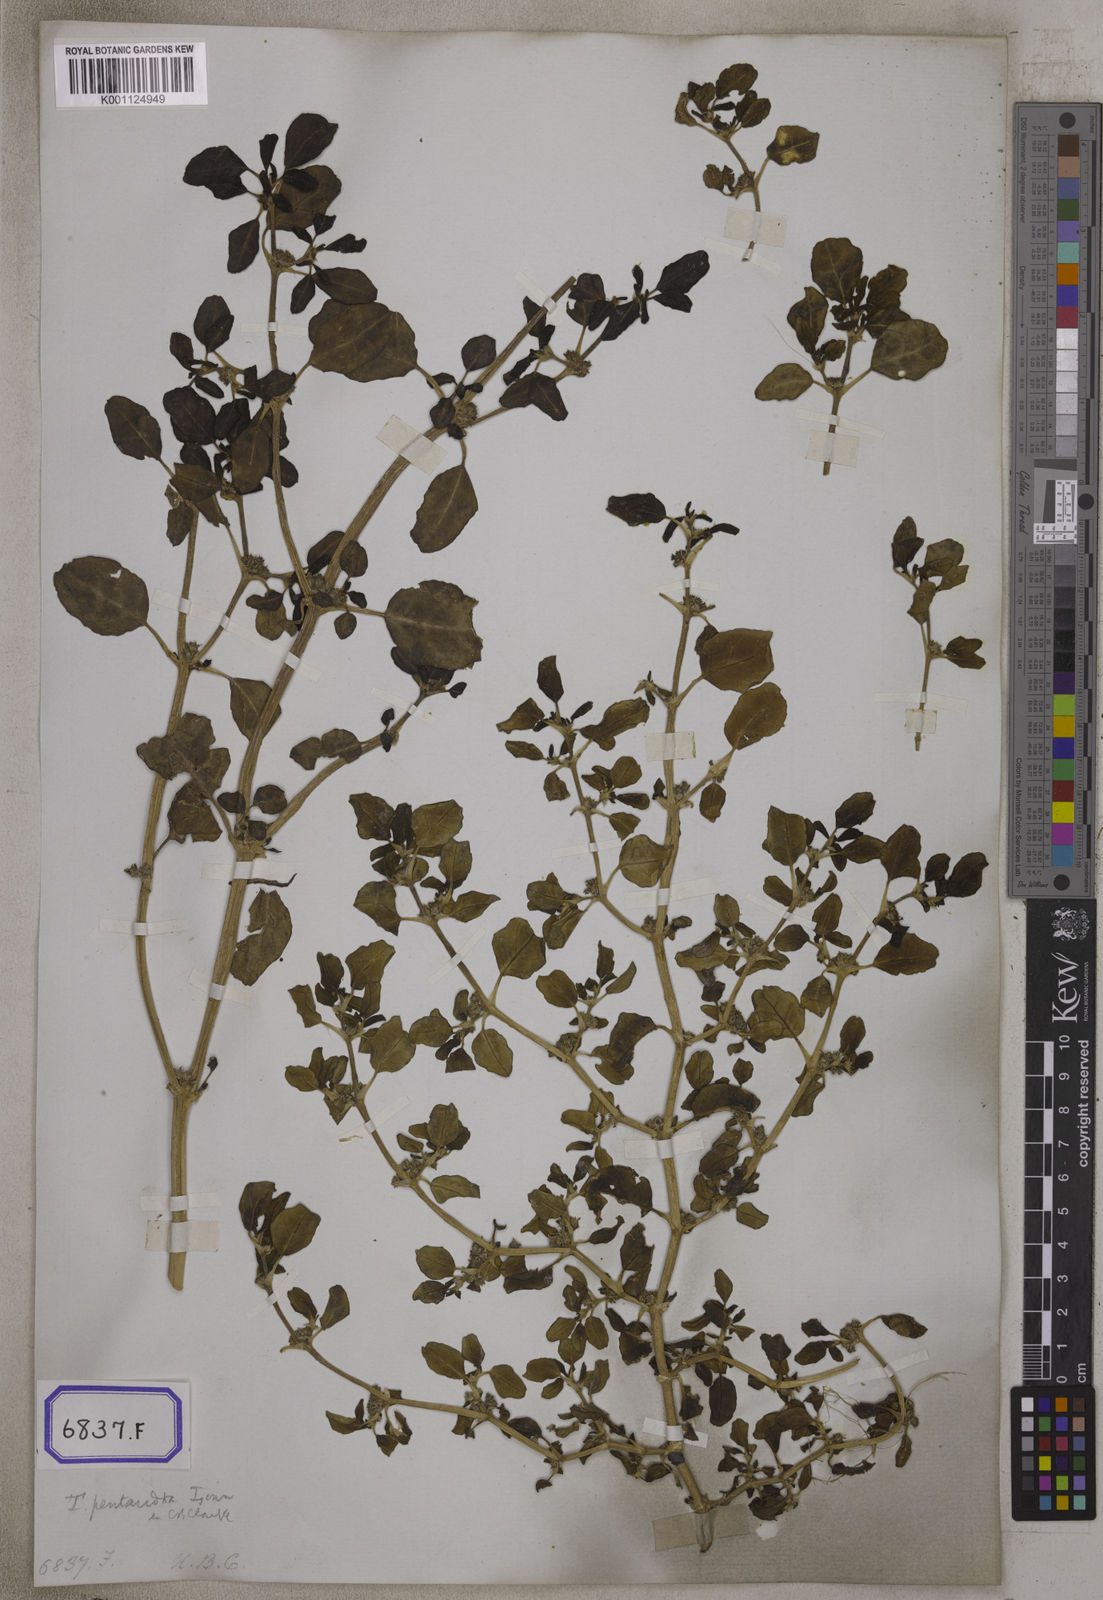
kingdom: Plantae
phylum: Tracheophyta
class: Magnoliopsida
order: Caryophyllales
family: Aizoaceae
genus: Trianthema
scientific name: Trianthema
